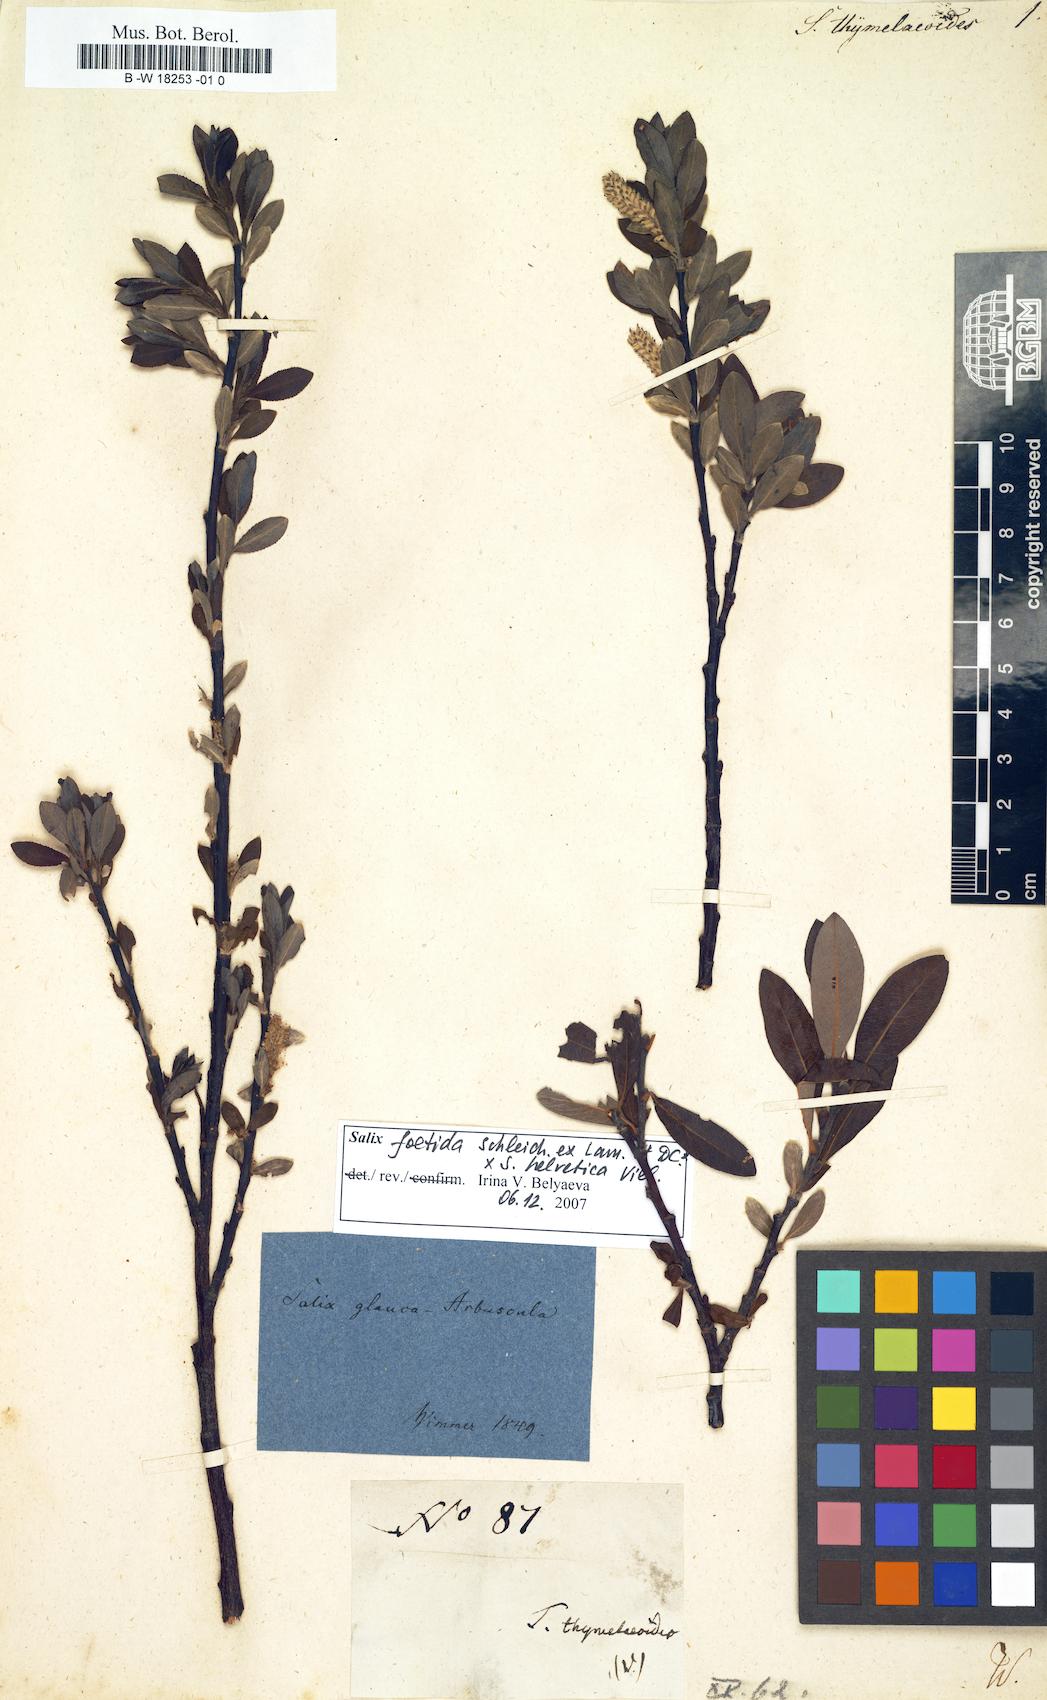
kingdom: Plantae
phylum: Tracheophyta
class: Magnoliopsida
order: Malpighiales
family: Salicaceae
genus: Salix
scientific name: Salix arbuscula
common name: Mountain willow
